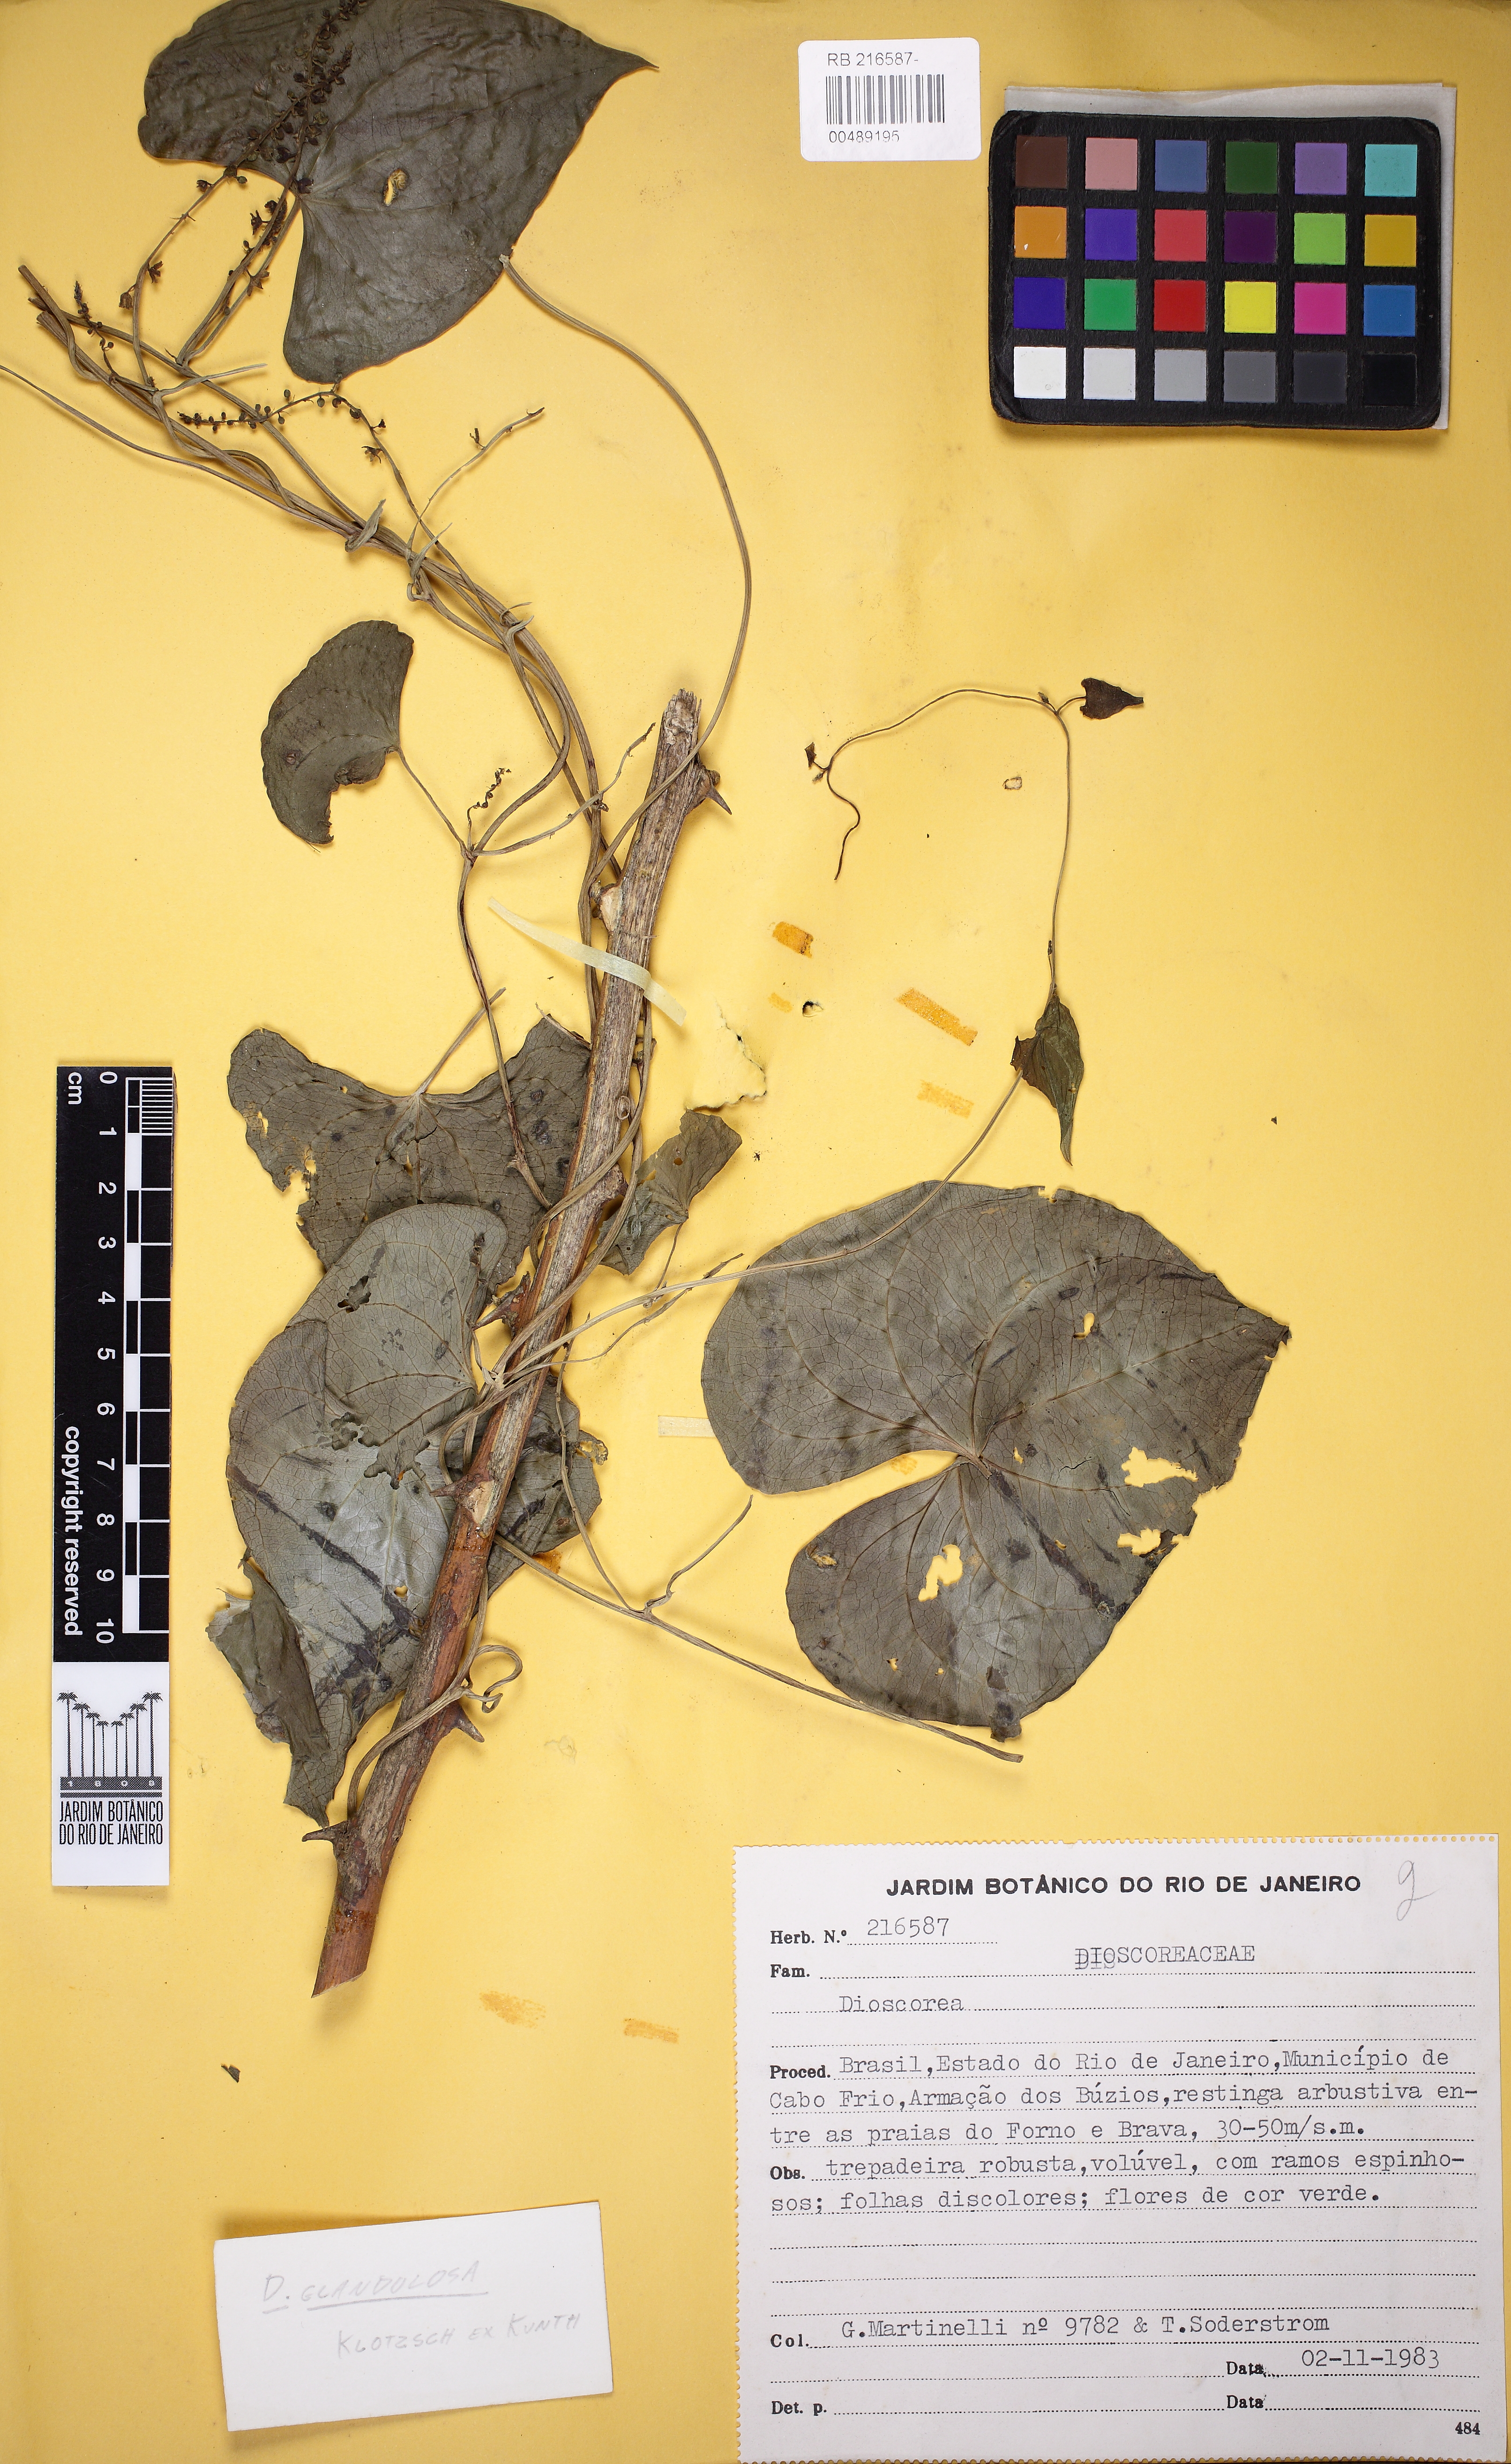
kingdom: Plantae
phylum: Tracheophyta
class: Liliopsida
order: Dioscoreales
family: Dioscoreaceae
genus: Dioscorea
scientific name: Dioscorea piperifolia
